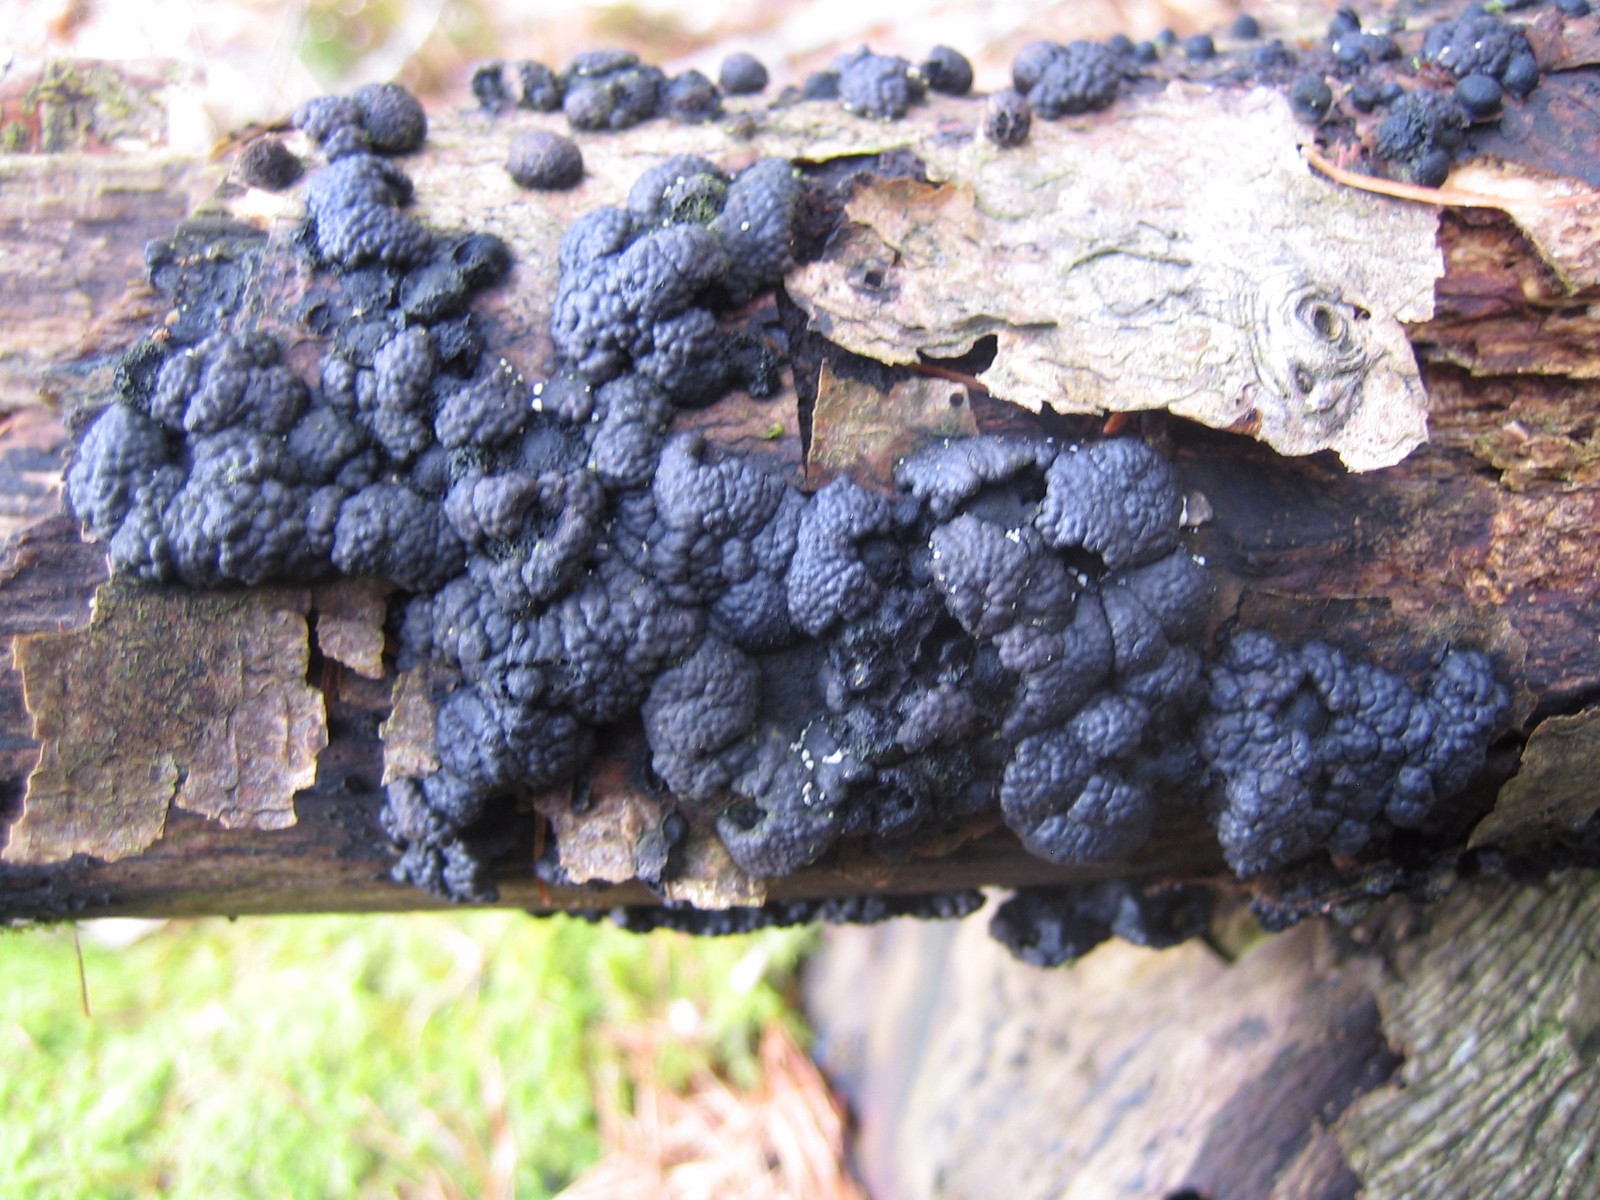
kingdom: Fungi
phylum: Ascomycota
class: Sordariomycetes
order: Xylariales
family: Hypoxylaceae
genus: Jackrogersella
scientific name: Jackrogersella multiformis
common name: foranderlig kulbær
